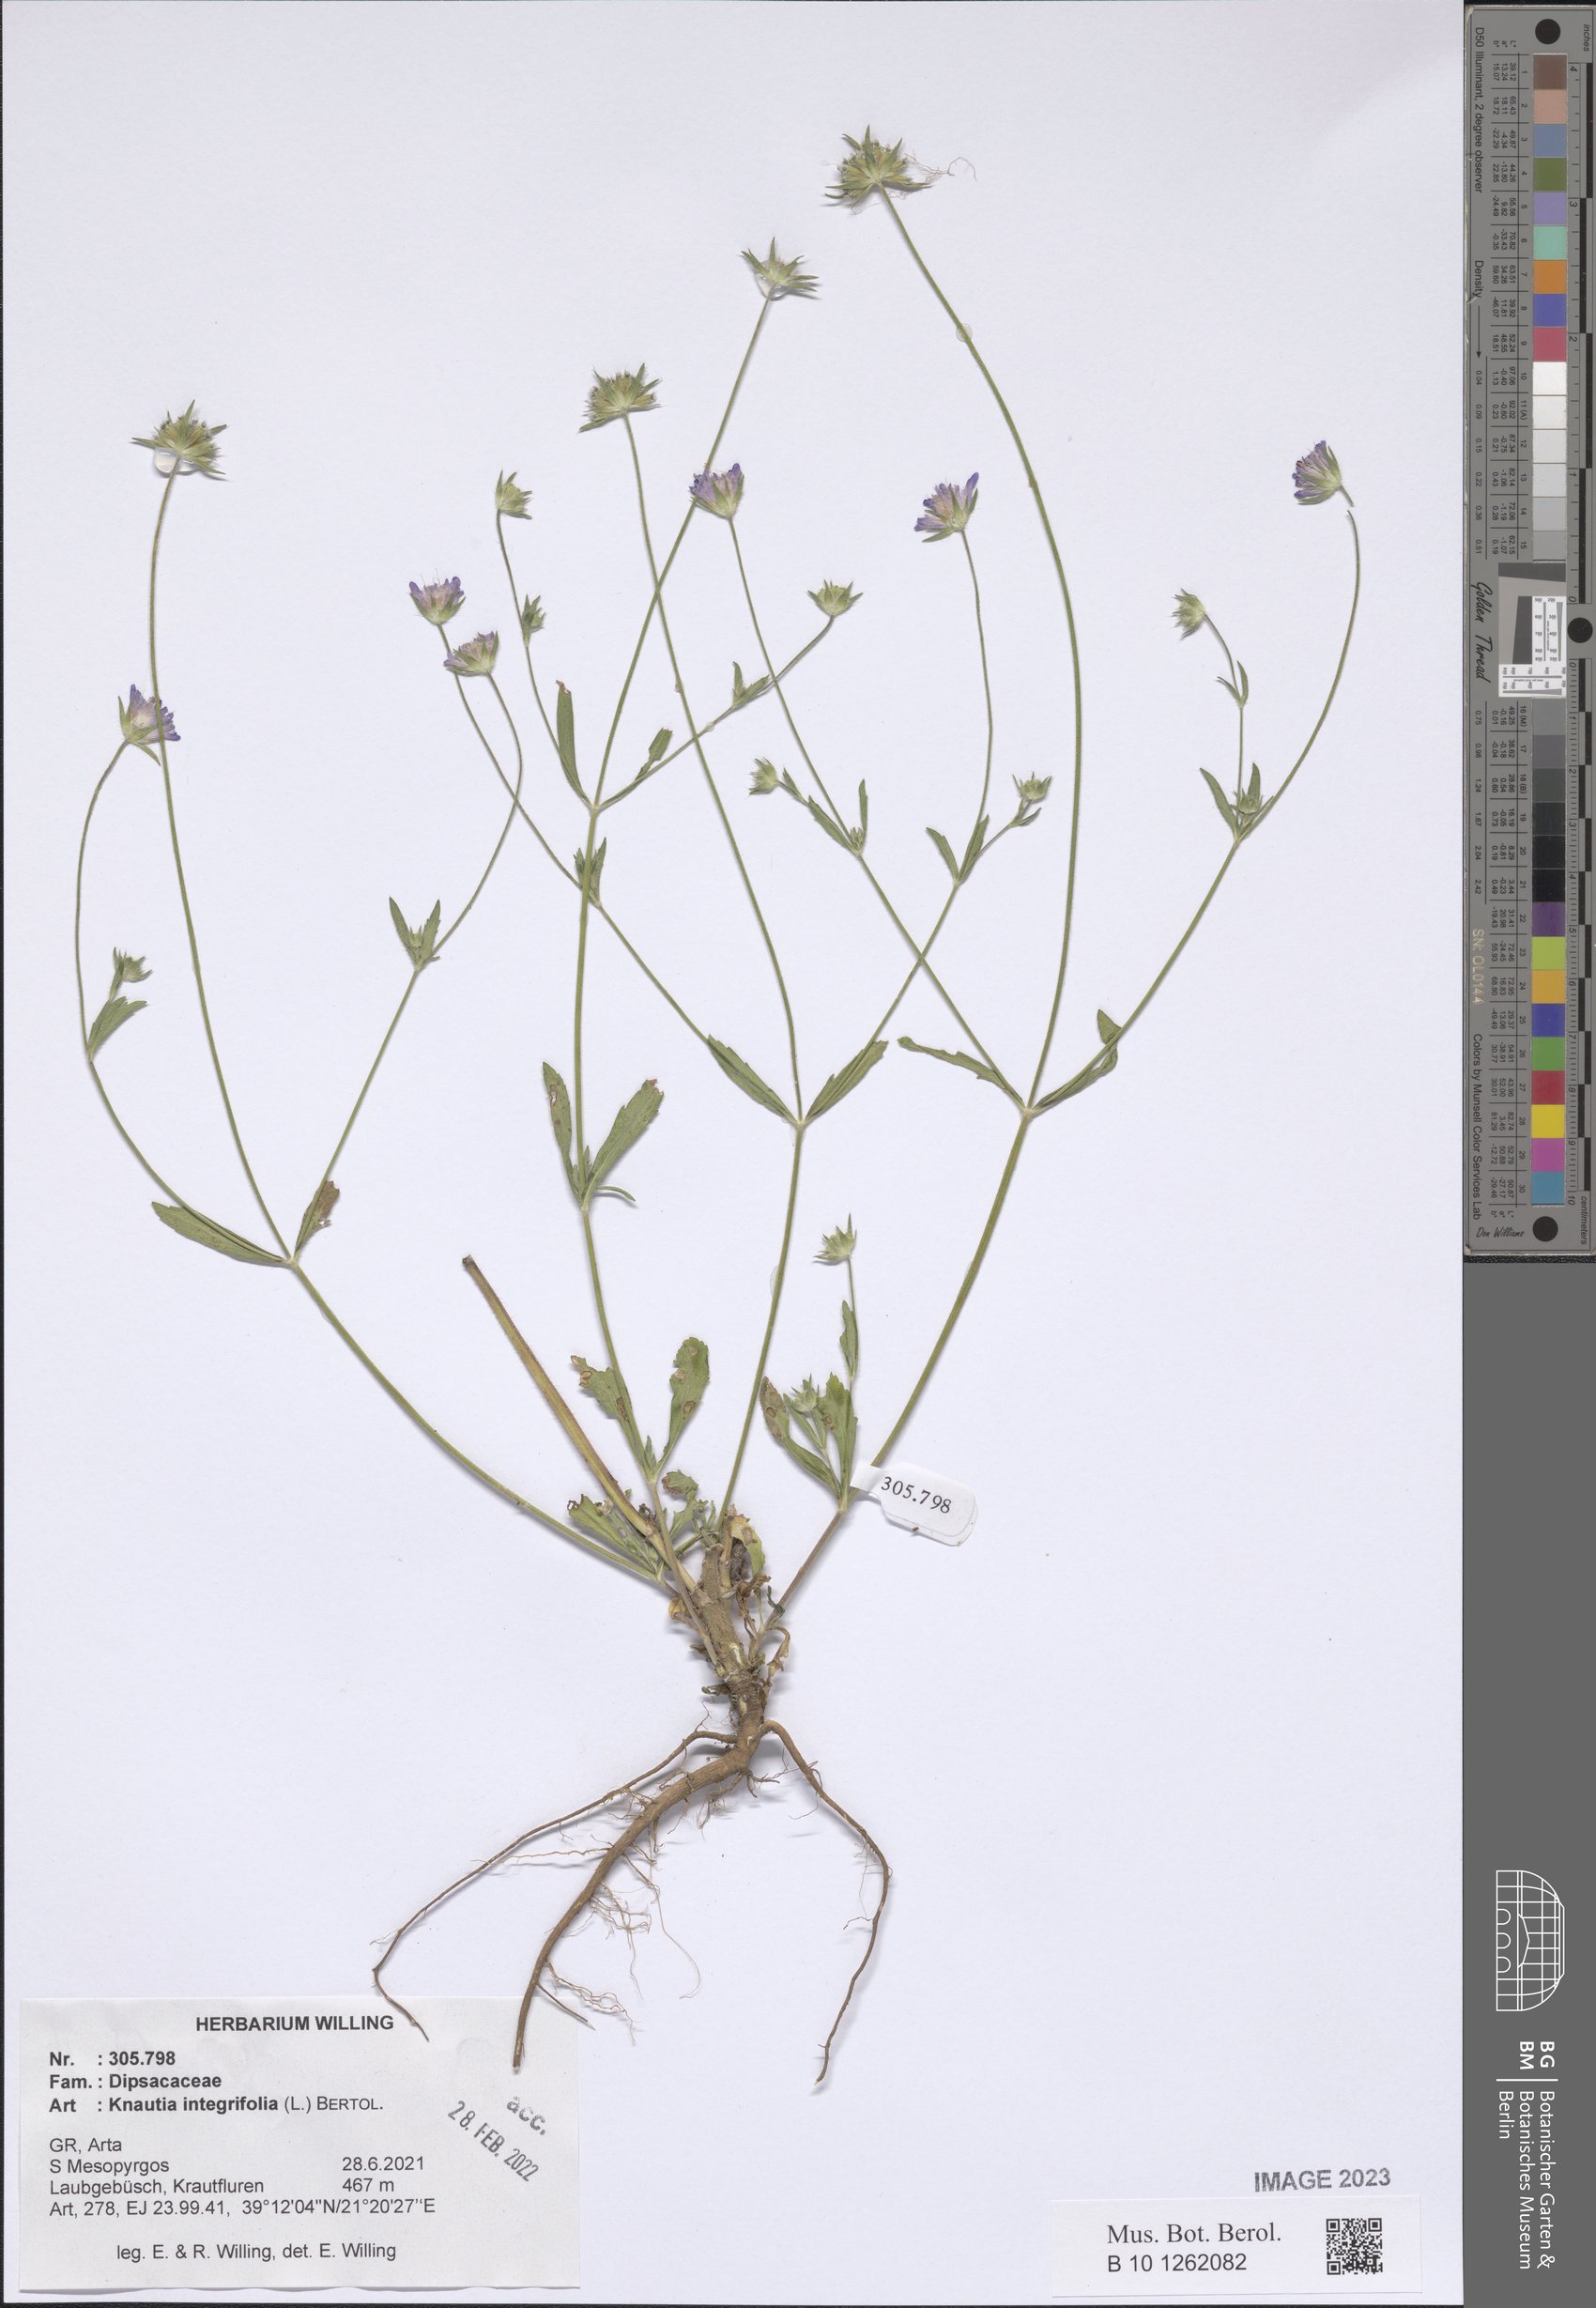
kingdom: Plantae
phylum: Tracheophyta
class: Magnoliopsida
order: Dipsacales
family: Caprifoliaceae
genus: Knautia
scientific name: Knautia integrifolia
